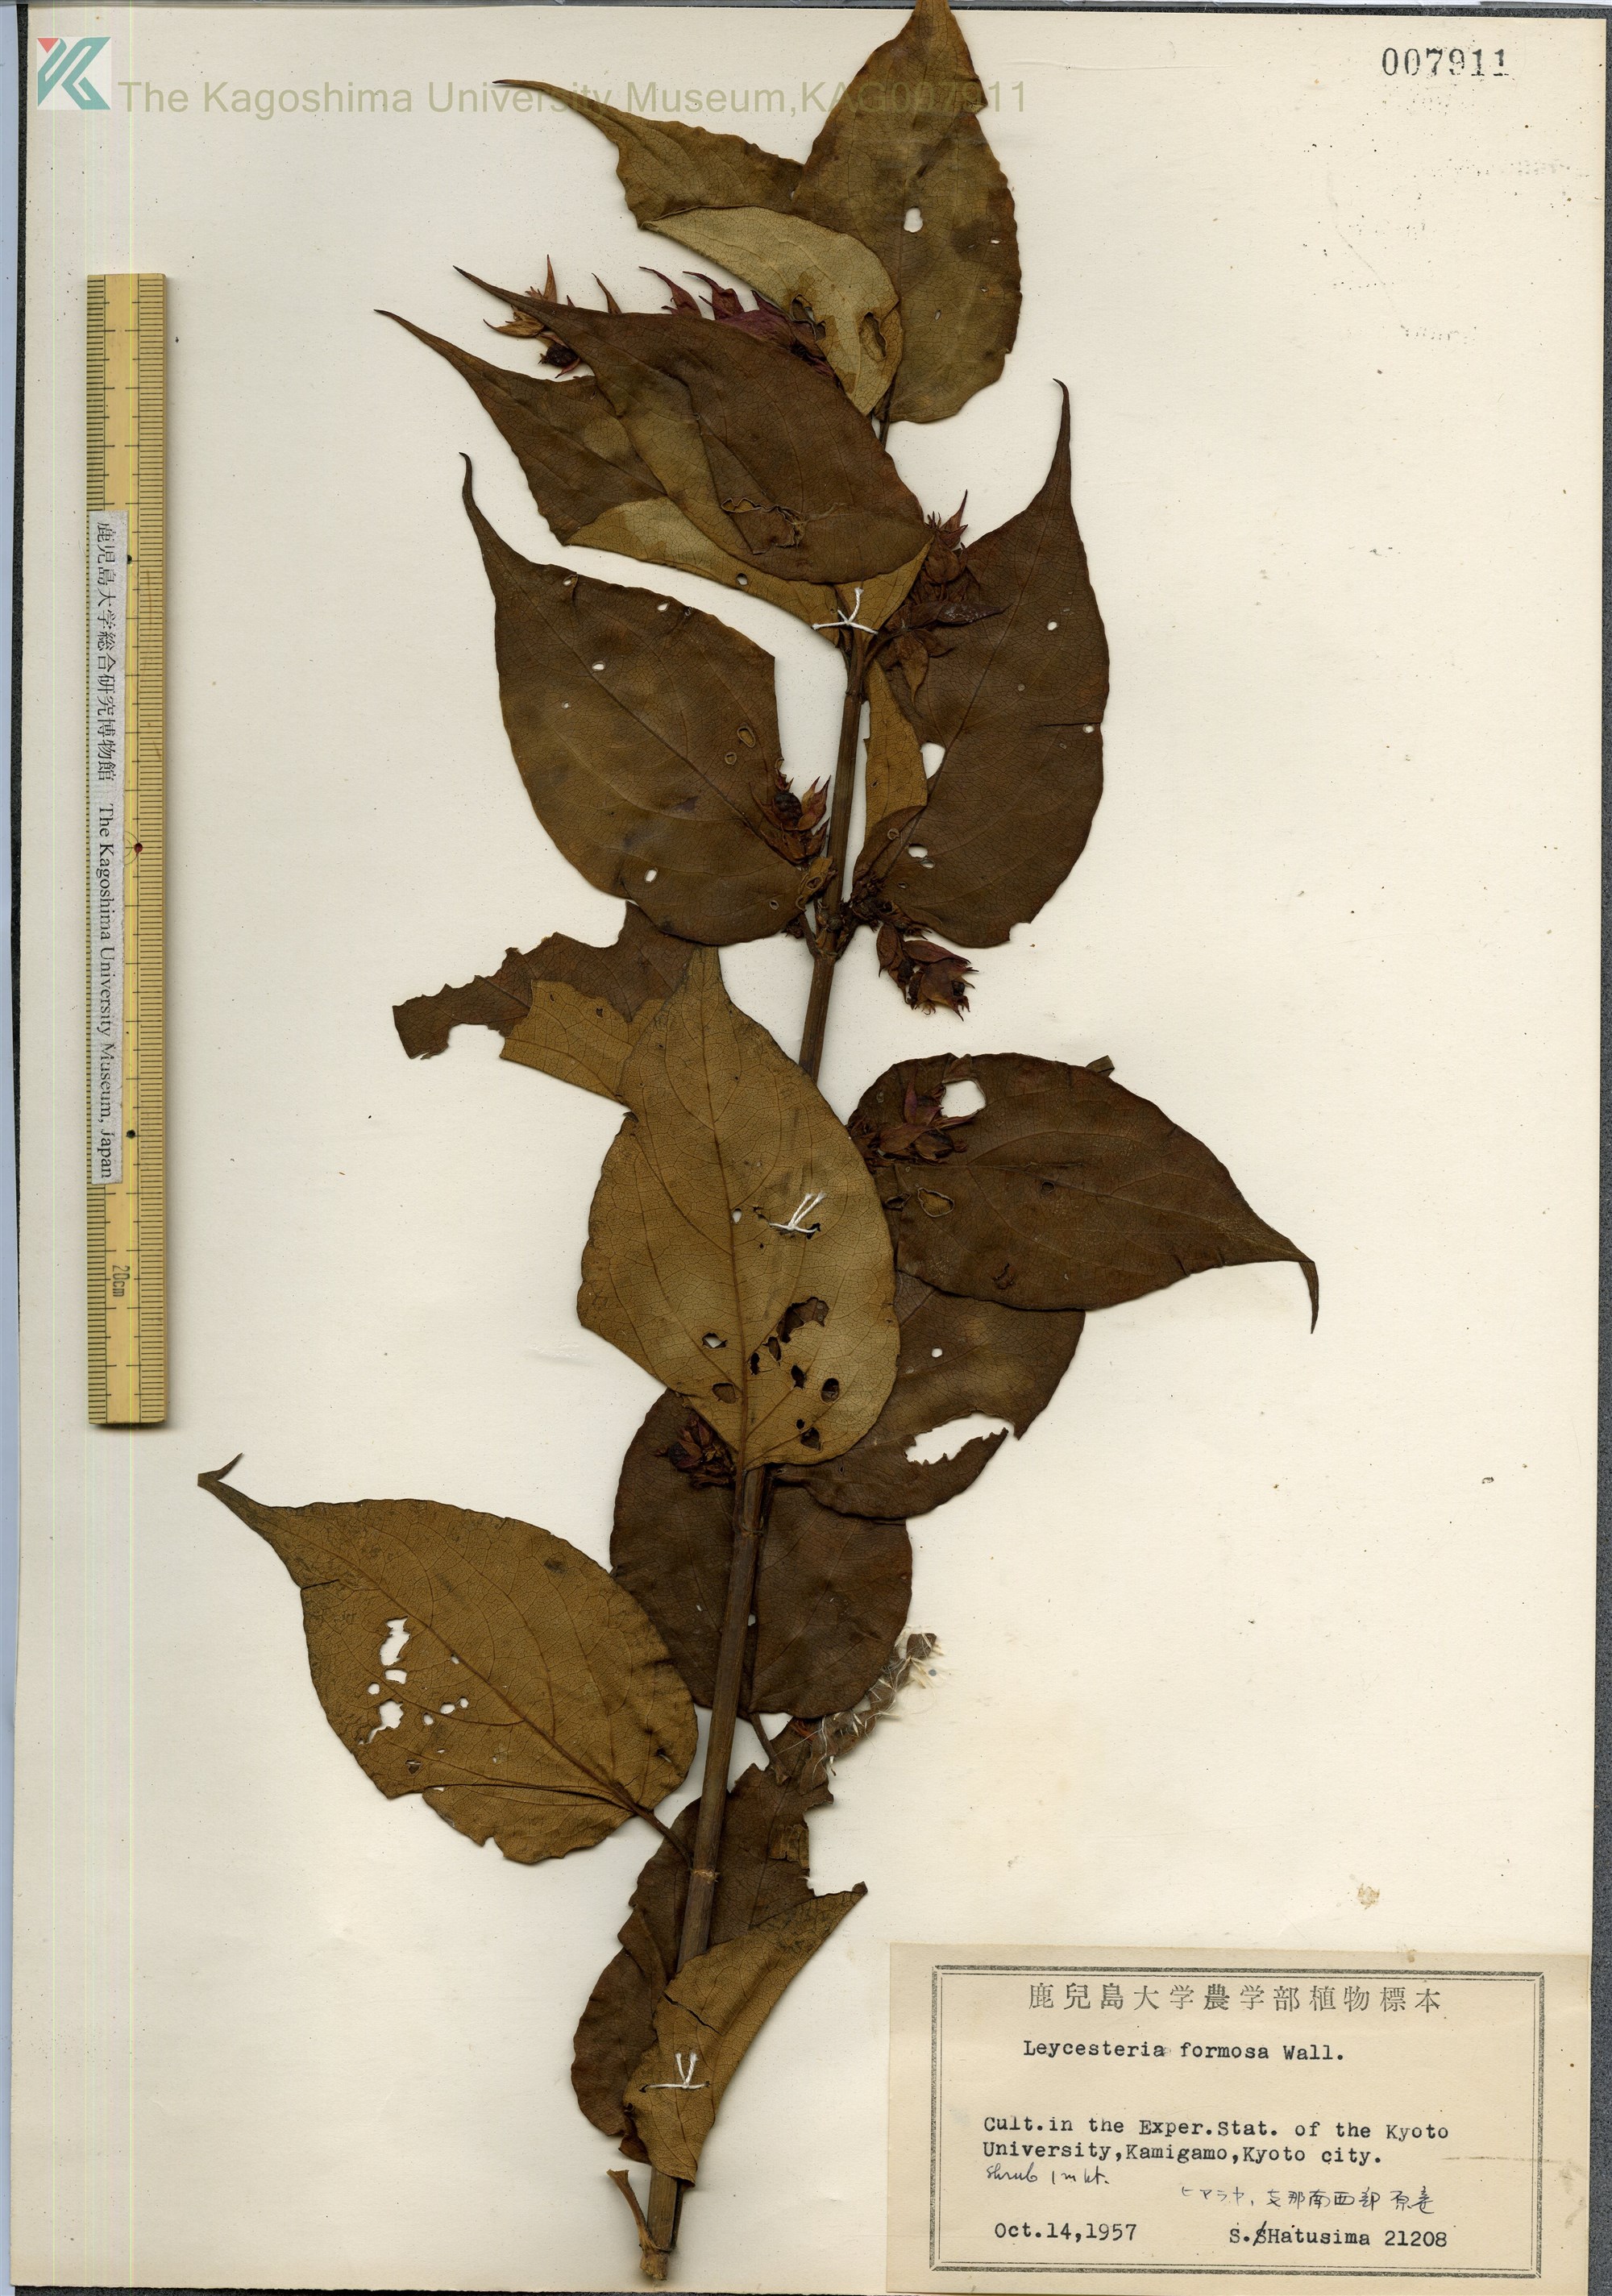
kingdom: Plantae
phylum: Tracheophyta
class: Magnoliopsida
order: Dipsacales
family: Caprifoliaceae
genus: Leycesteria
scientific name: Leycesteria formosa
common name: Himalayan honeysuckle
